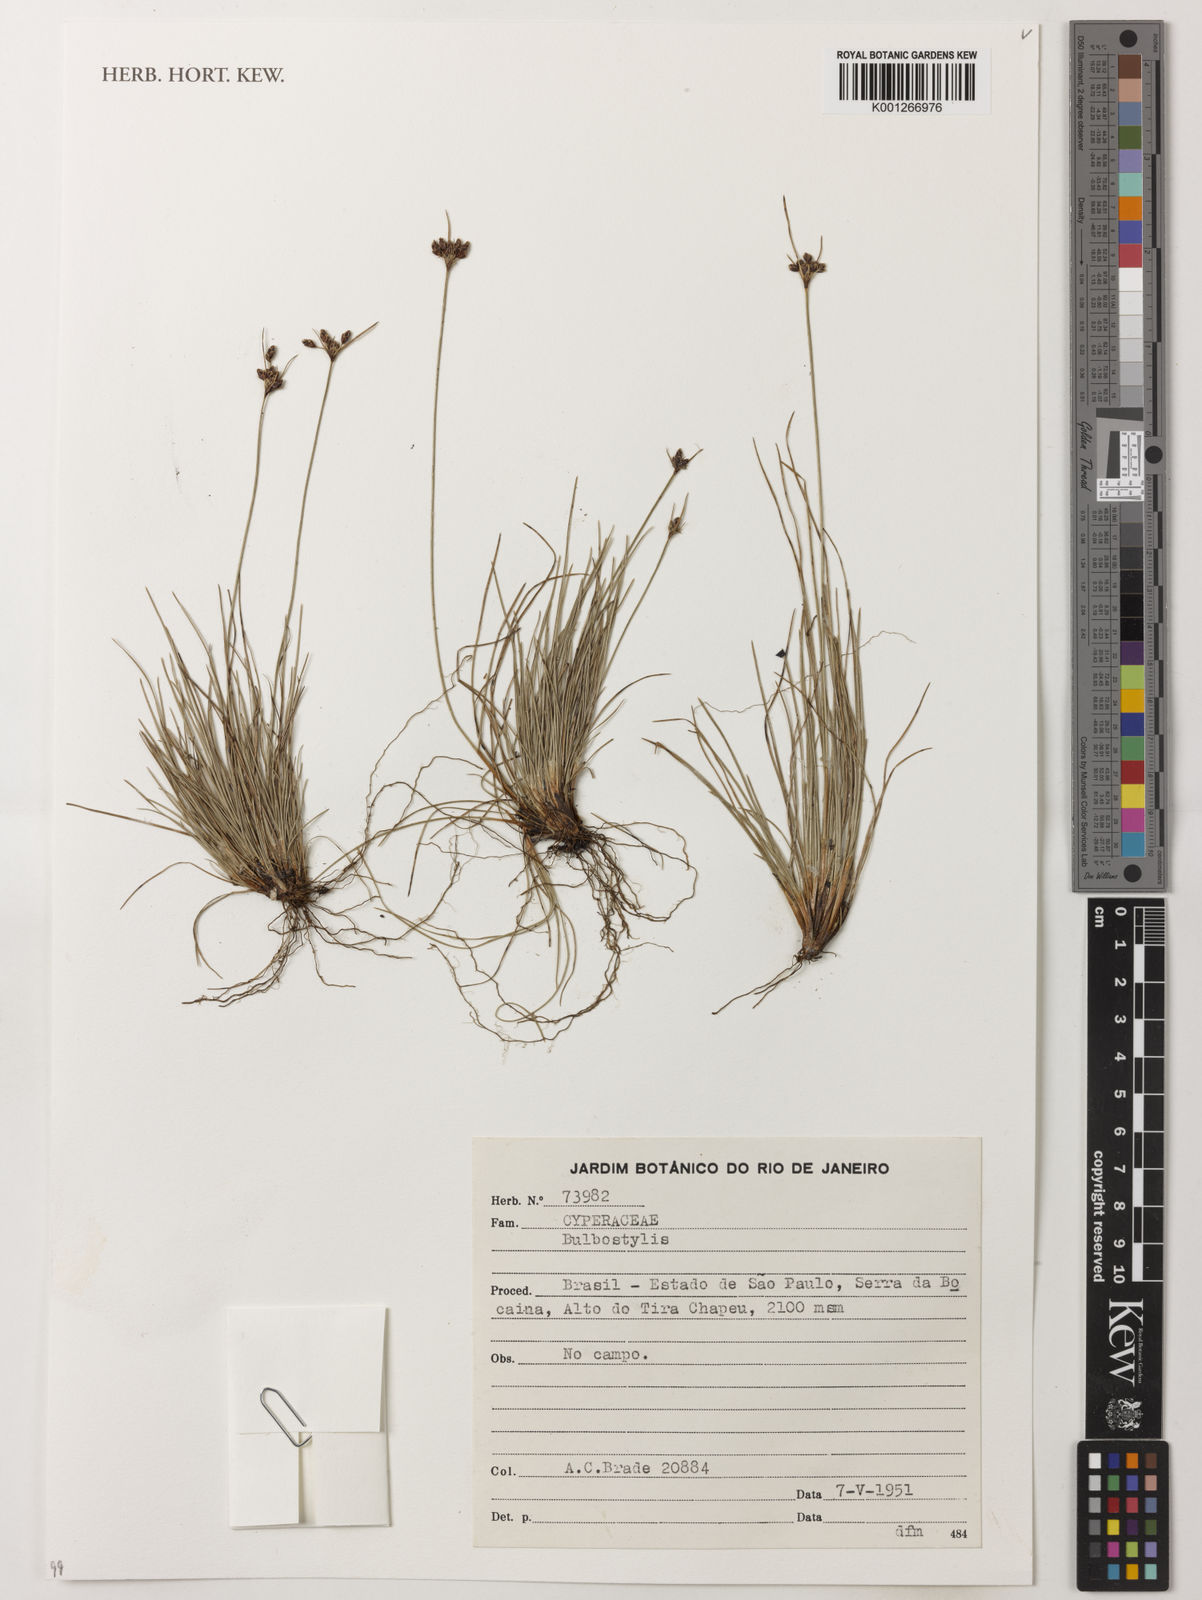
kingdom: Plantae
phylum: Tracheophyta
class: Liliopsida
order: Poales
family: Cyperaceae
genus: Bulbostylis
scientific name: Bulbostylis
